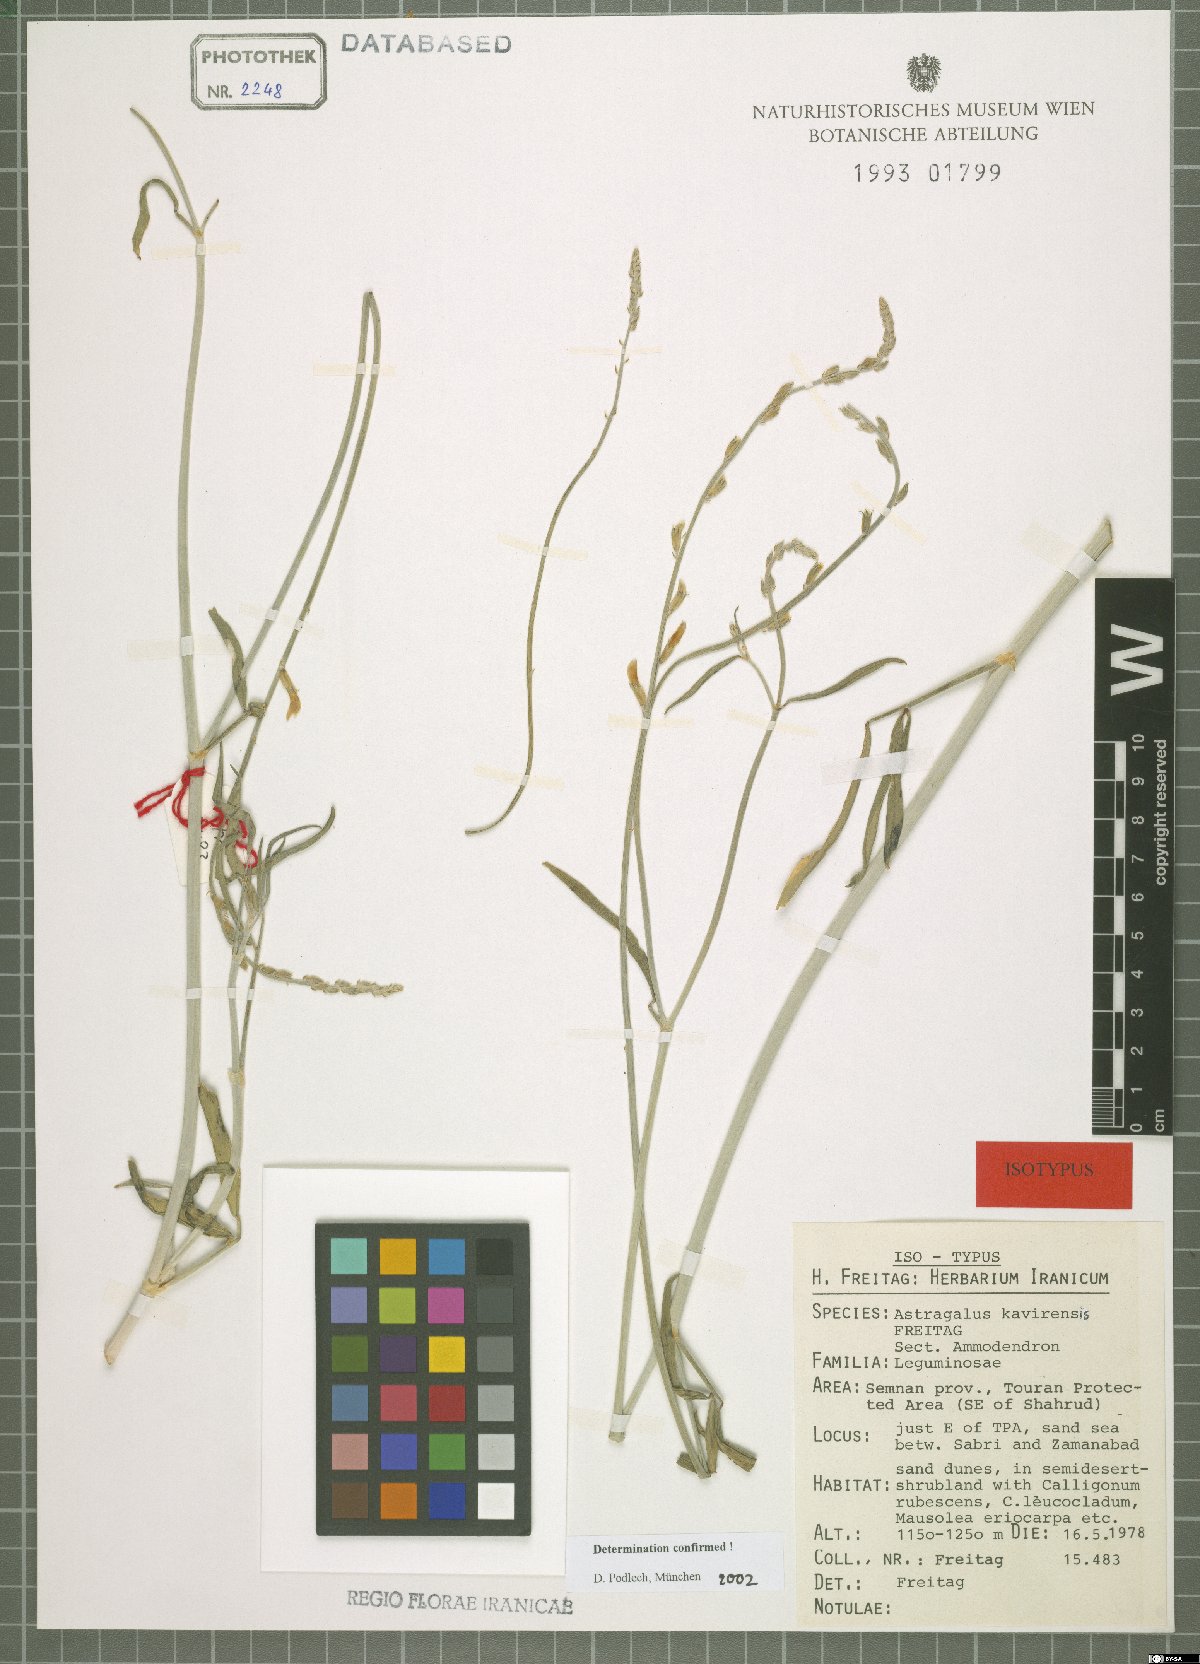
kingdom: Plantae
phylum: Tracheophyta
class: Magnoliopsida
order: Fabales
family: Fabaceae
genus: Astragalus
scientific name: Astragalus kavirensis
